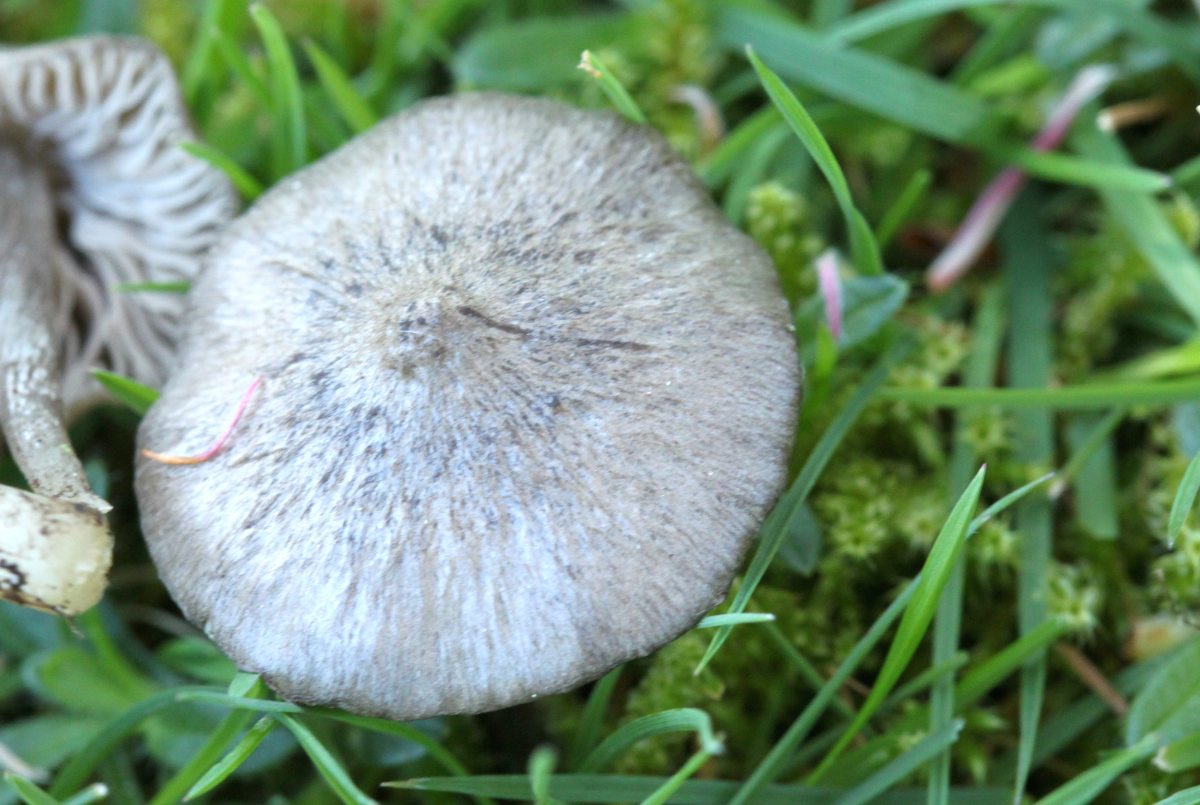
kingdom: Fungi
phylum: Basidiomycota
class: Agaricomycetes
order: Agaricales
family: Entolomataceae
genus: Entoloma
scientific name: Entoloma plebejum
